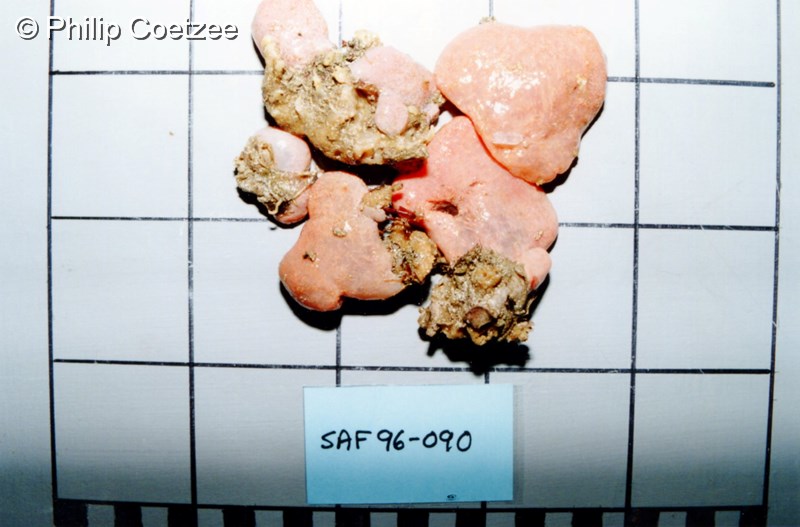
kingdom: Animalia
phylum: Chordata
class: Ascidiacea
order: Aplousobranchia
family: Polyclinidae
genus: Aplidium
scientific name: Aplidium
